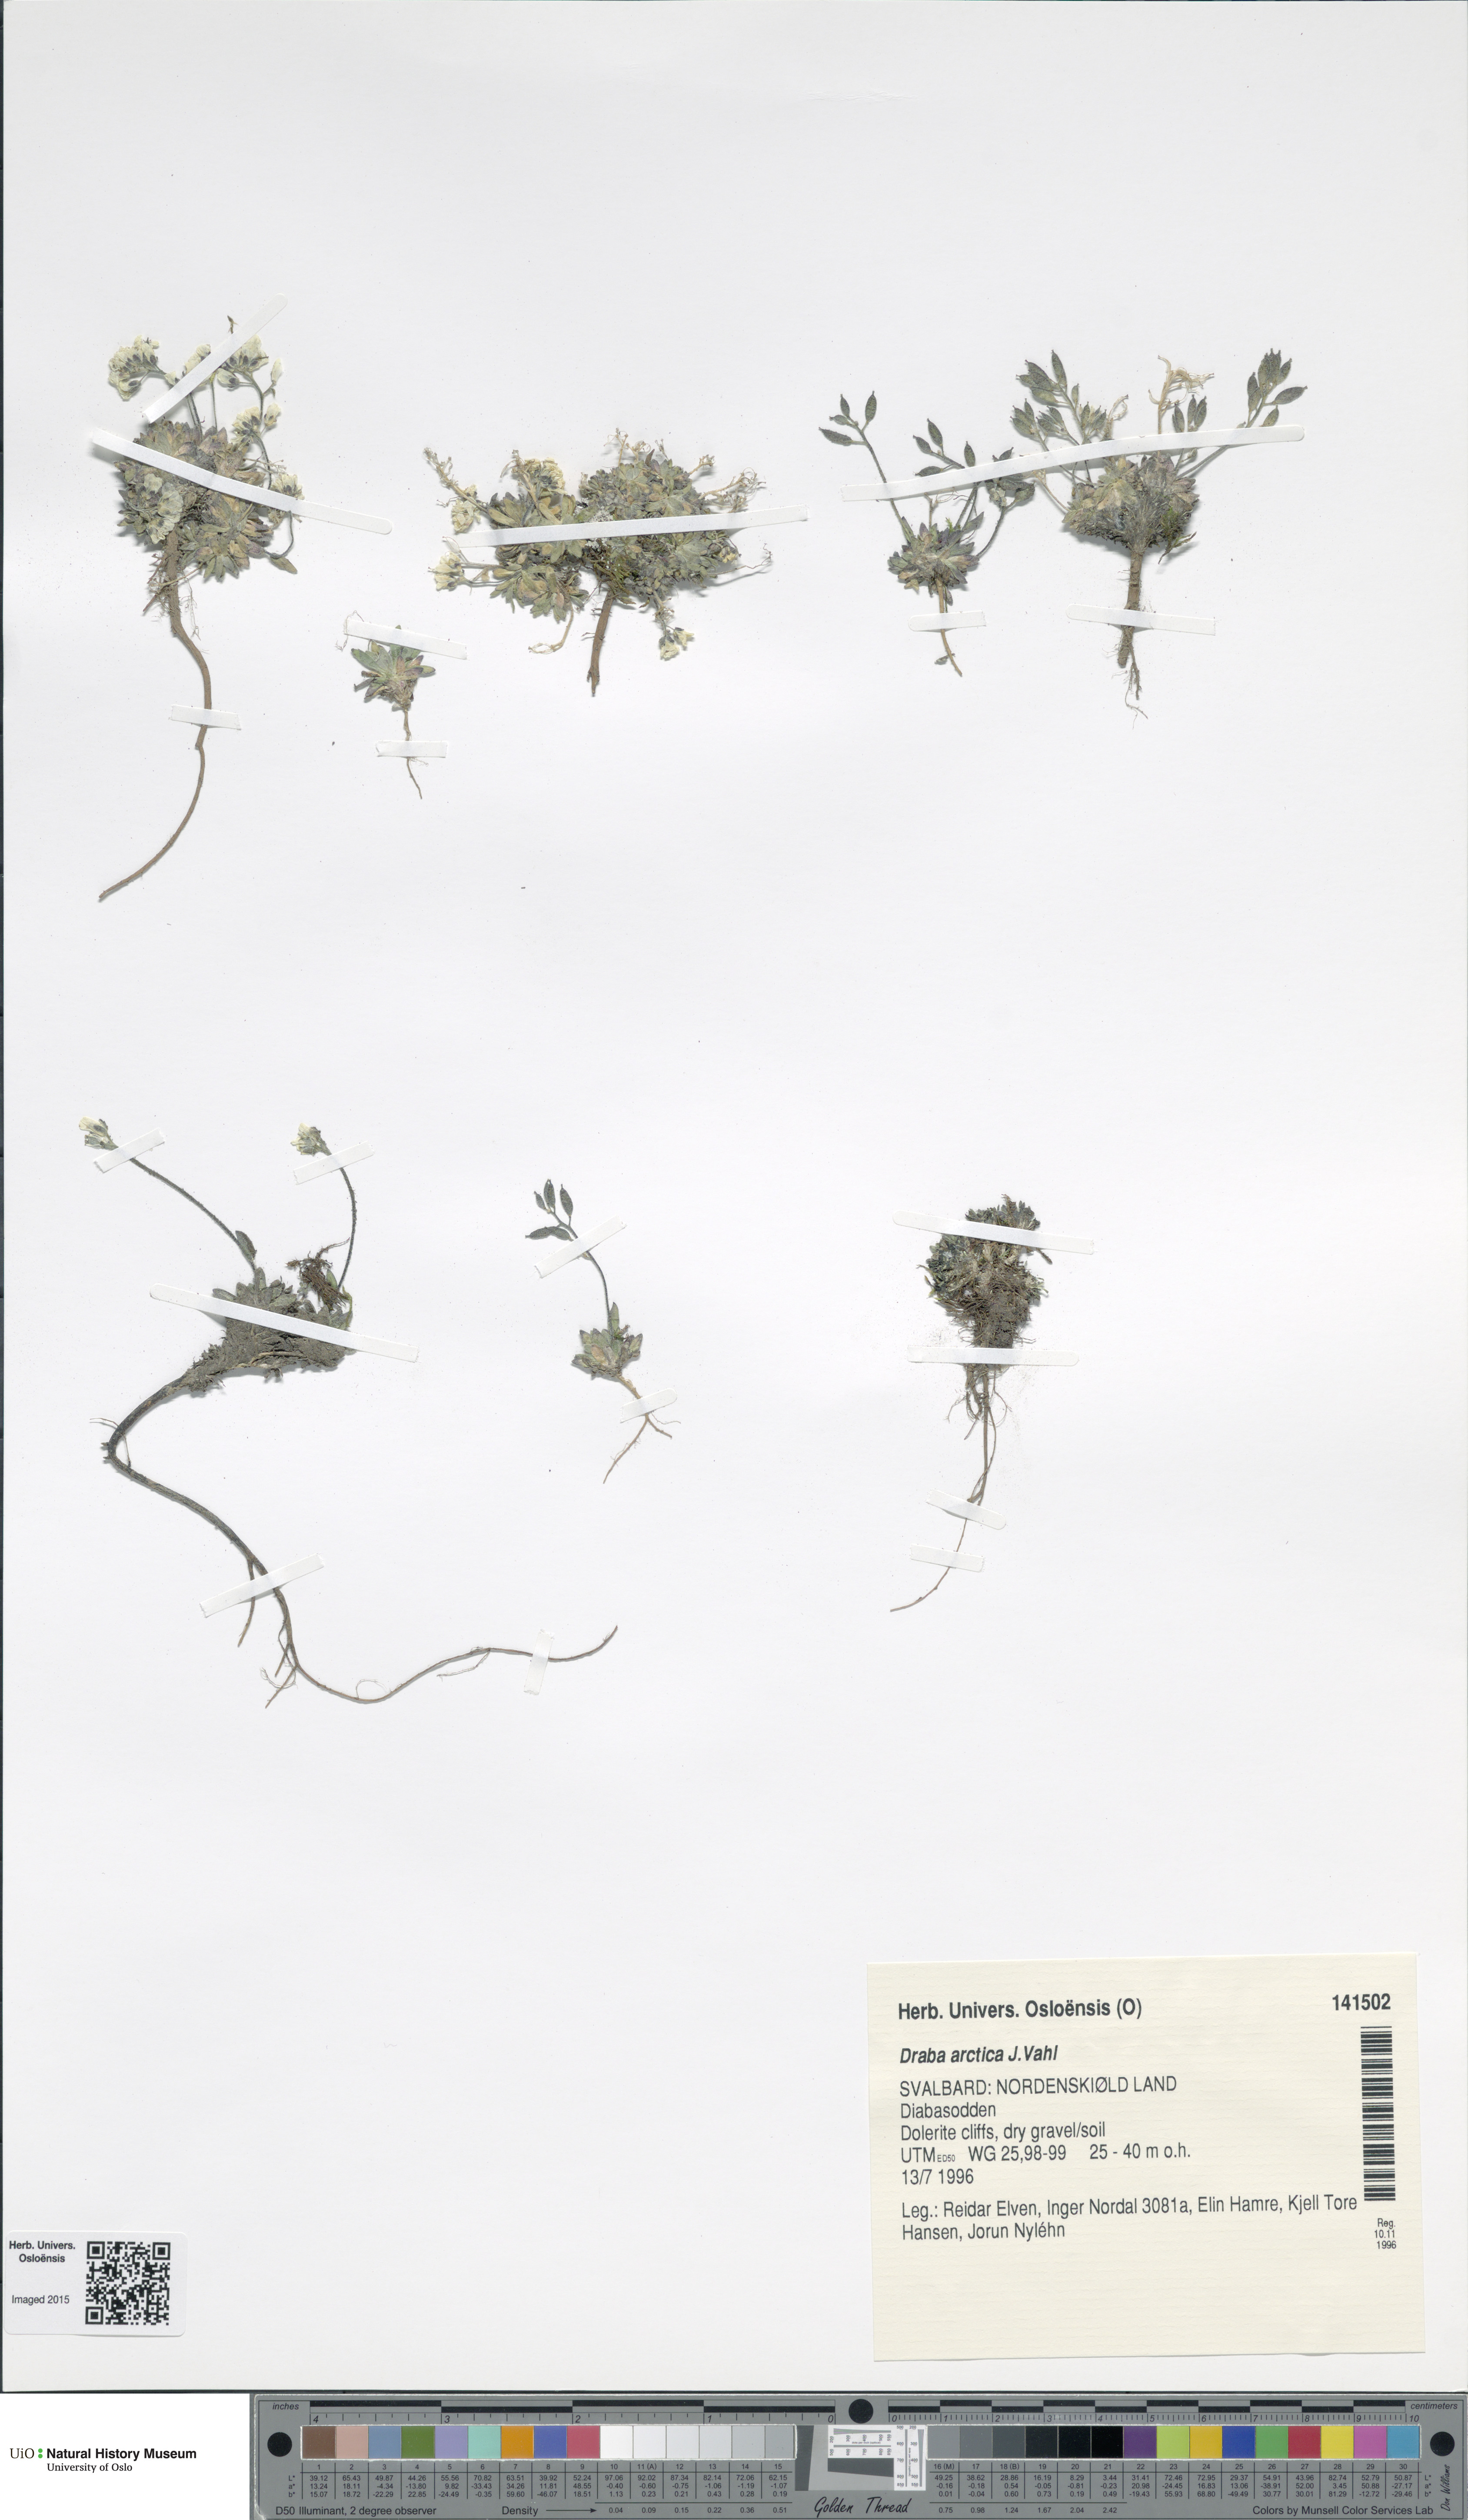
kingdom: Plantae
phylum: Tracheophyta
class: Magnoliopsida
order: Brassicales
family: Brassicaceae
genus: Draba
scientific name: Draba arctica
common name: Arctic draba
